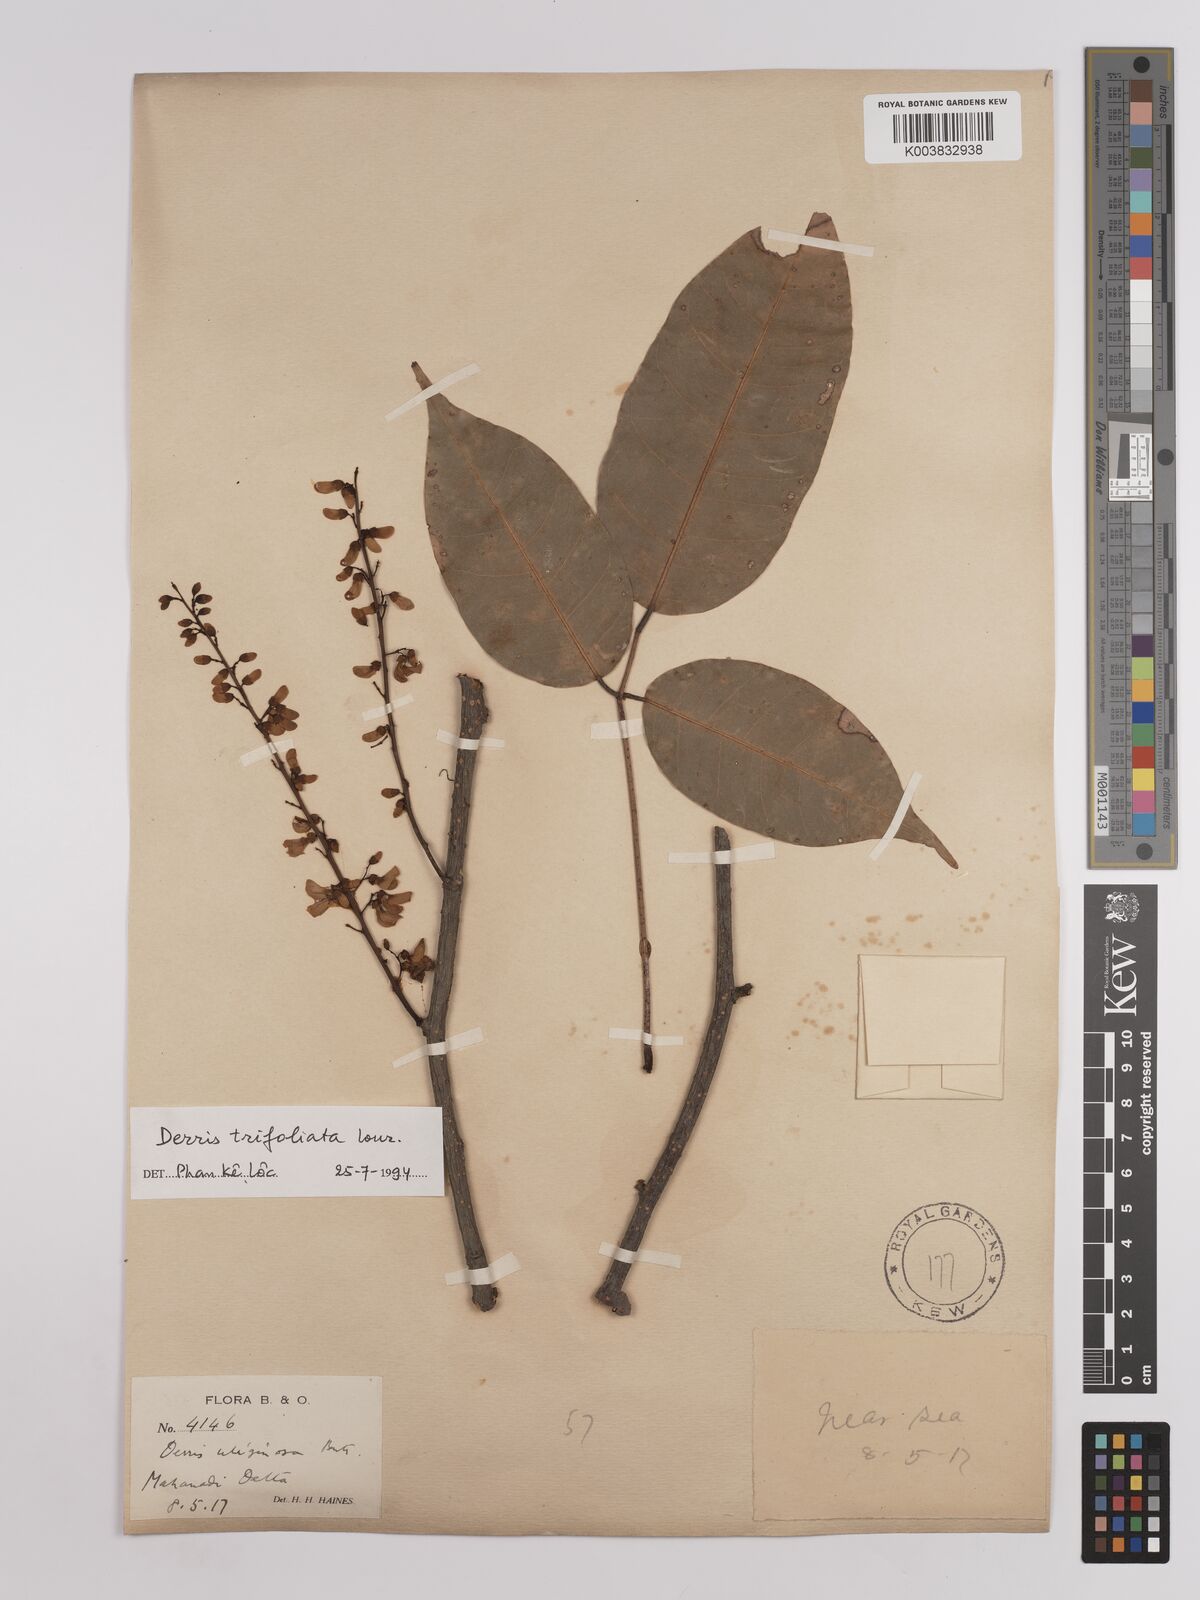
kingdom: Plantae
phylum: Tracheophyta
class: Magnoliopsida
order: Fabales
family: Fabaceae
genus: Derris
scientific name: Derris trifoliata
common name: Three-leaf derris
